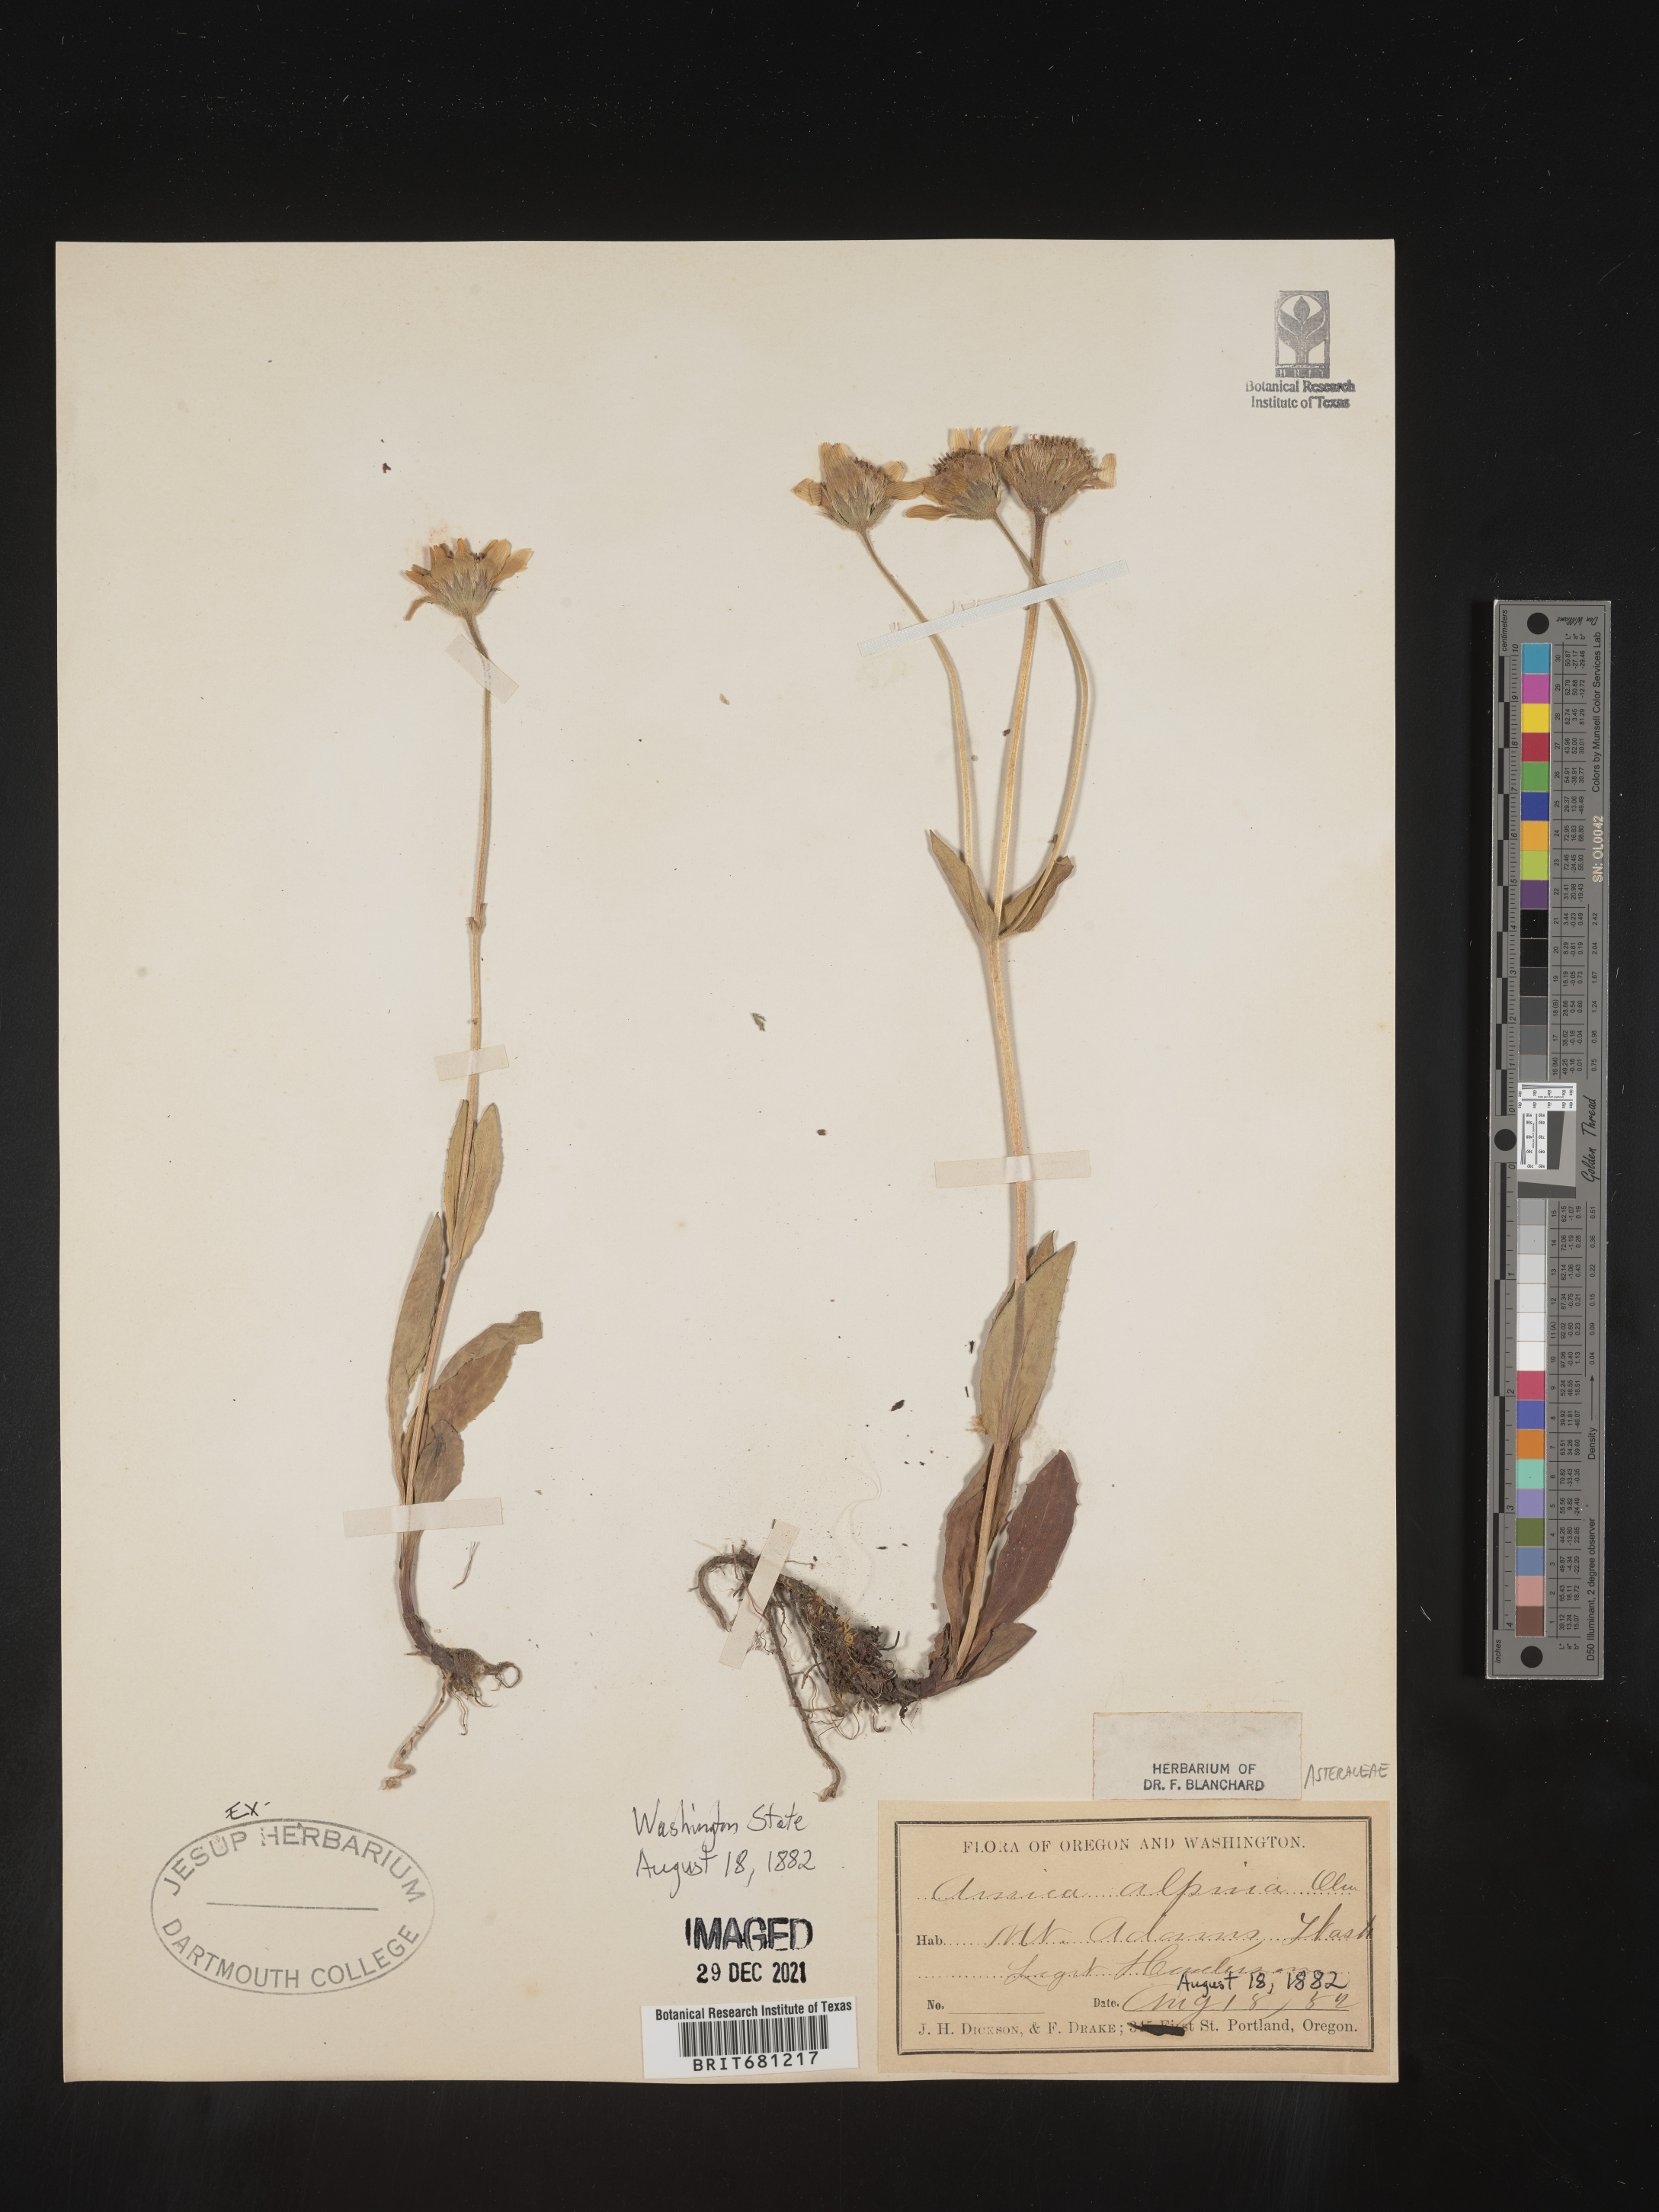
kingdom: Plantae
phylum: Tracheophyta
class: Magnoliopsida
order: Asterales
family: Asteraceae
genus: Arnica
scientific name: Arnica angustifolia
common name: Arctic arnica
